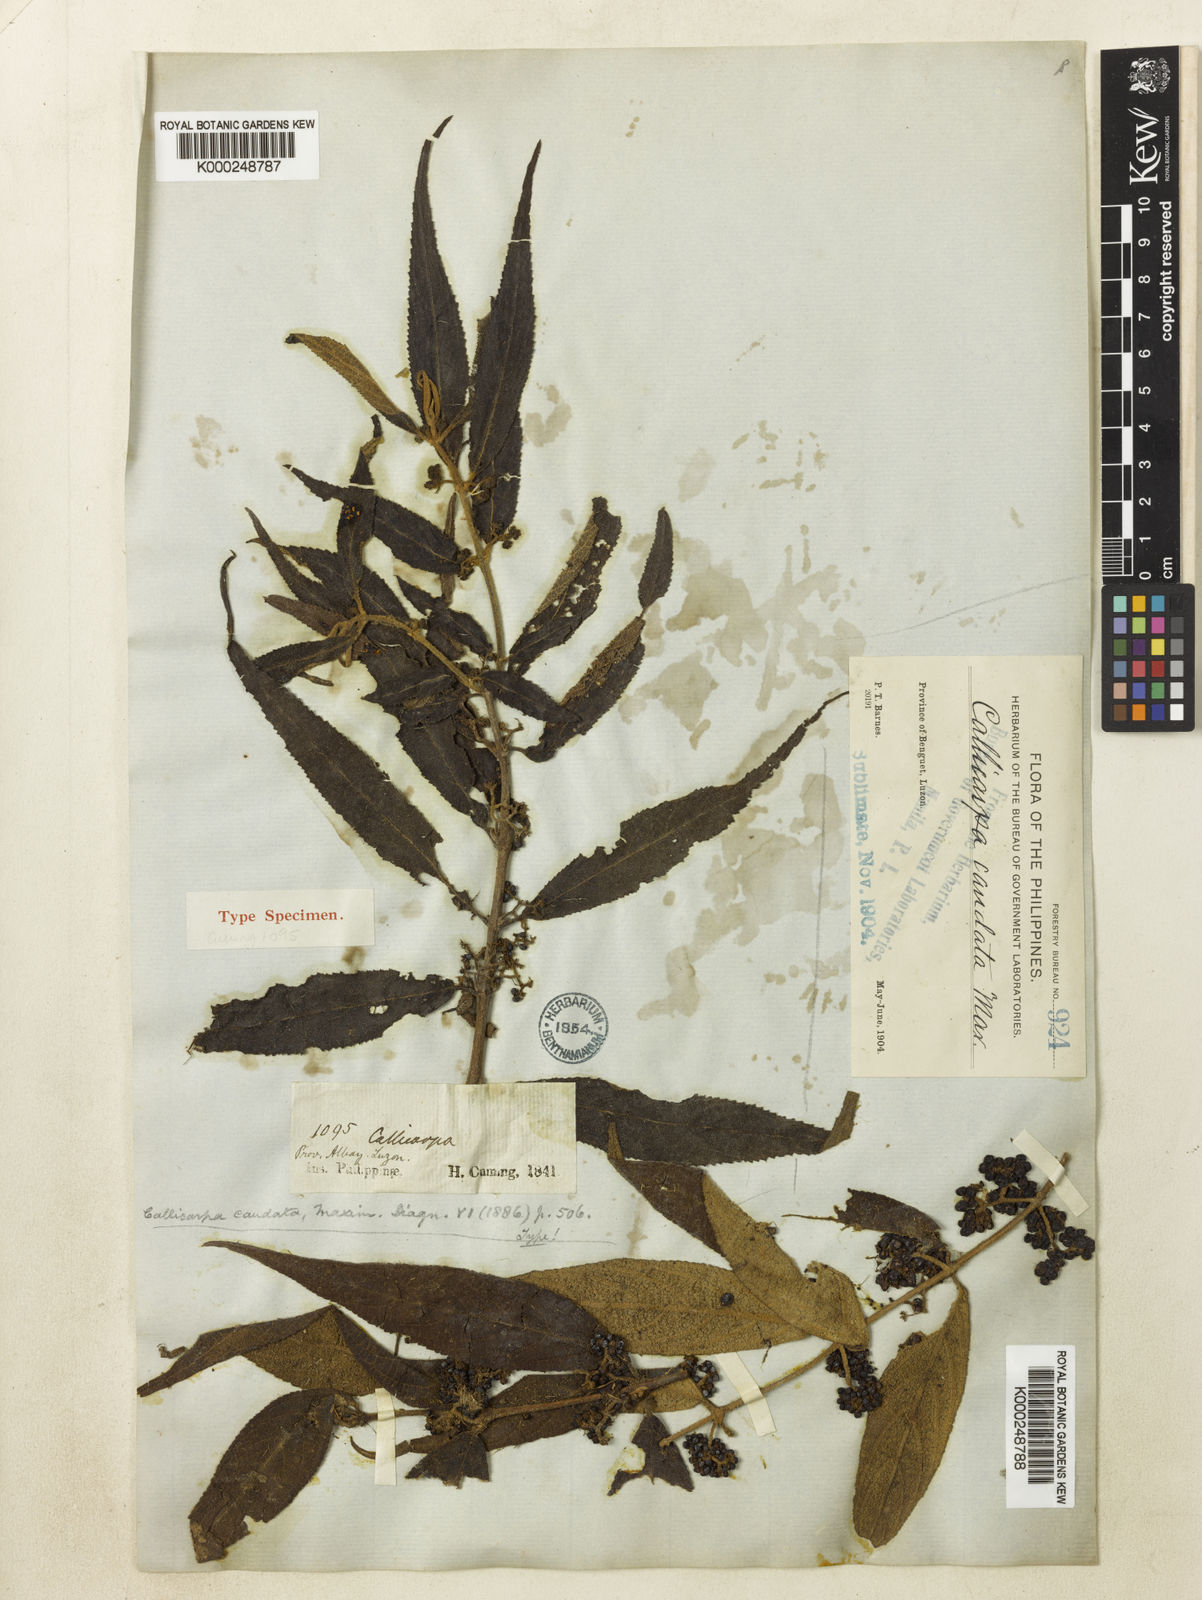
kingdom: Plantae
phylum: Tracheophyta
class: Magnoliopsida
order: Lamiales
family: Lamiaceae
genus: Callicarpa
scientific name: Callicarpa caudata
